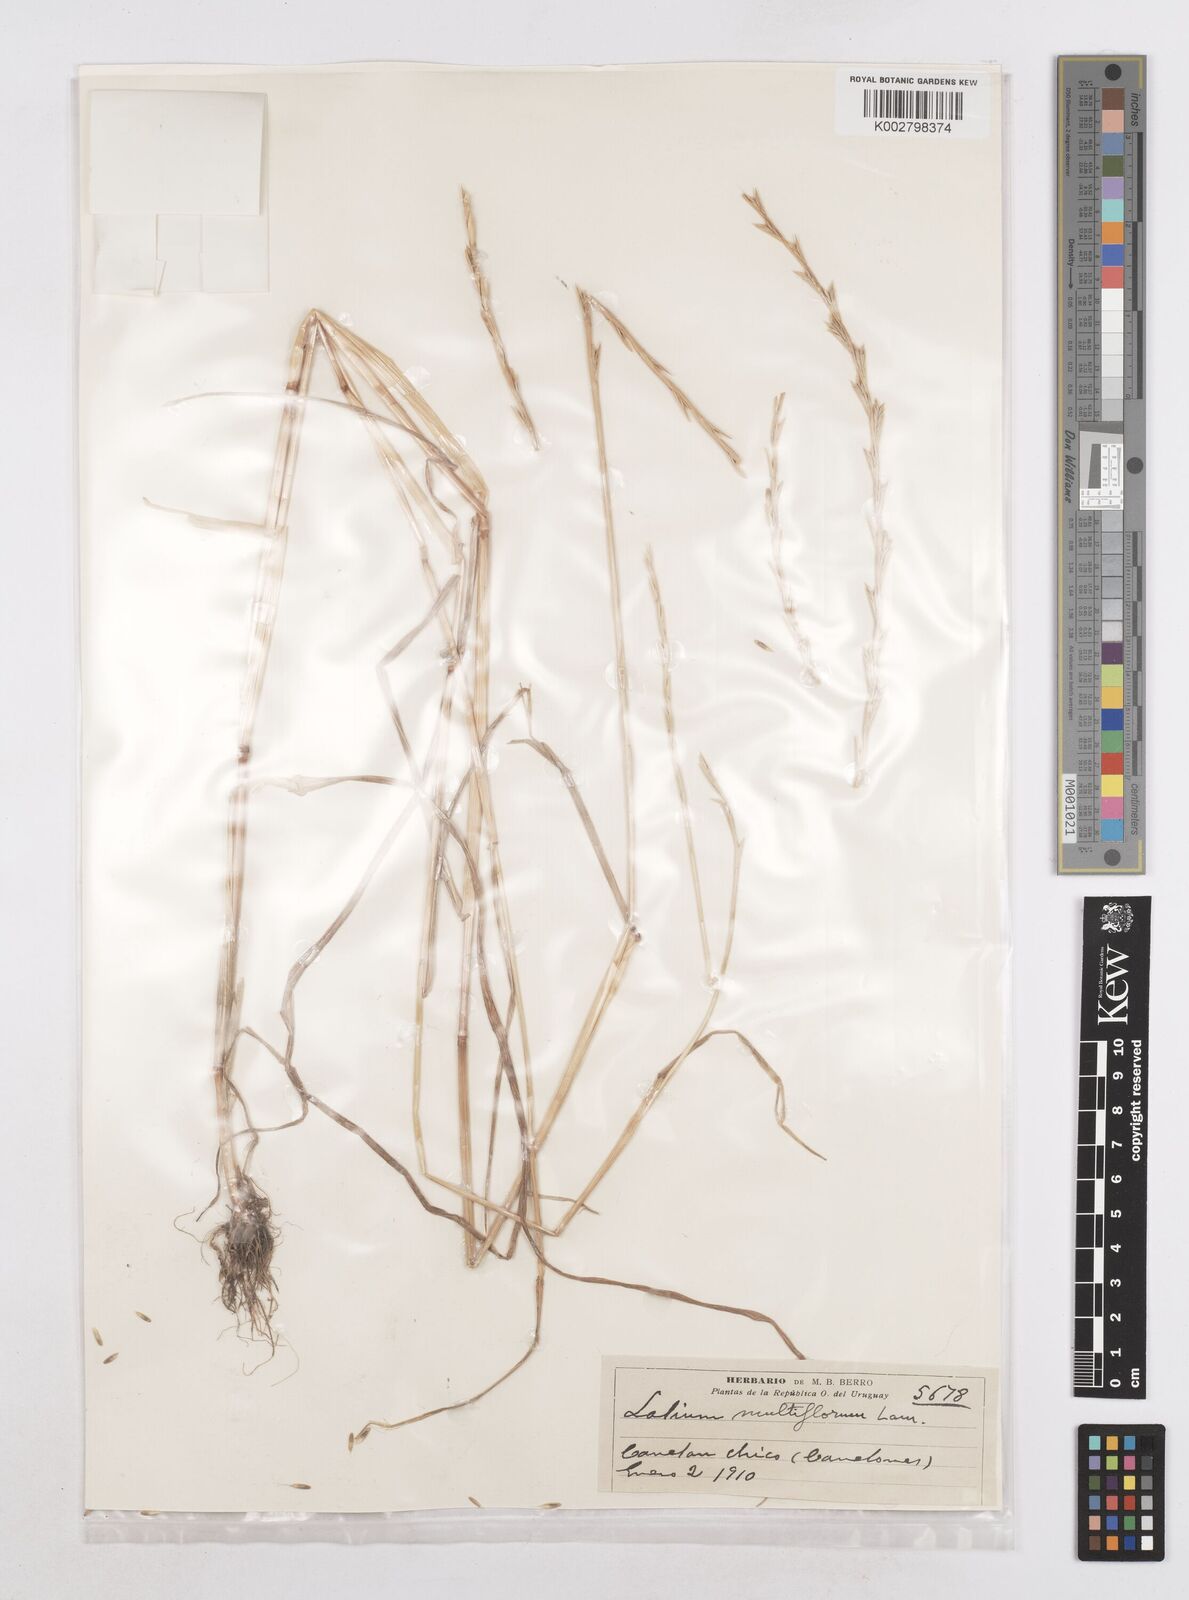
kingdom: Plantae
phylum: Tracheophyta
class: Liliopsida
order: Poales
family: Poaceae
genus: Lolium
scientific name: Lolium multiflorum
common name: Annual ryegrass
